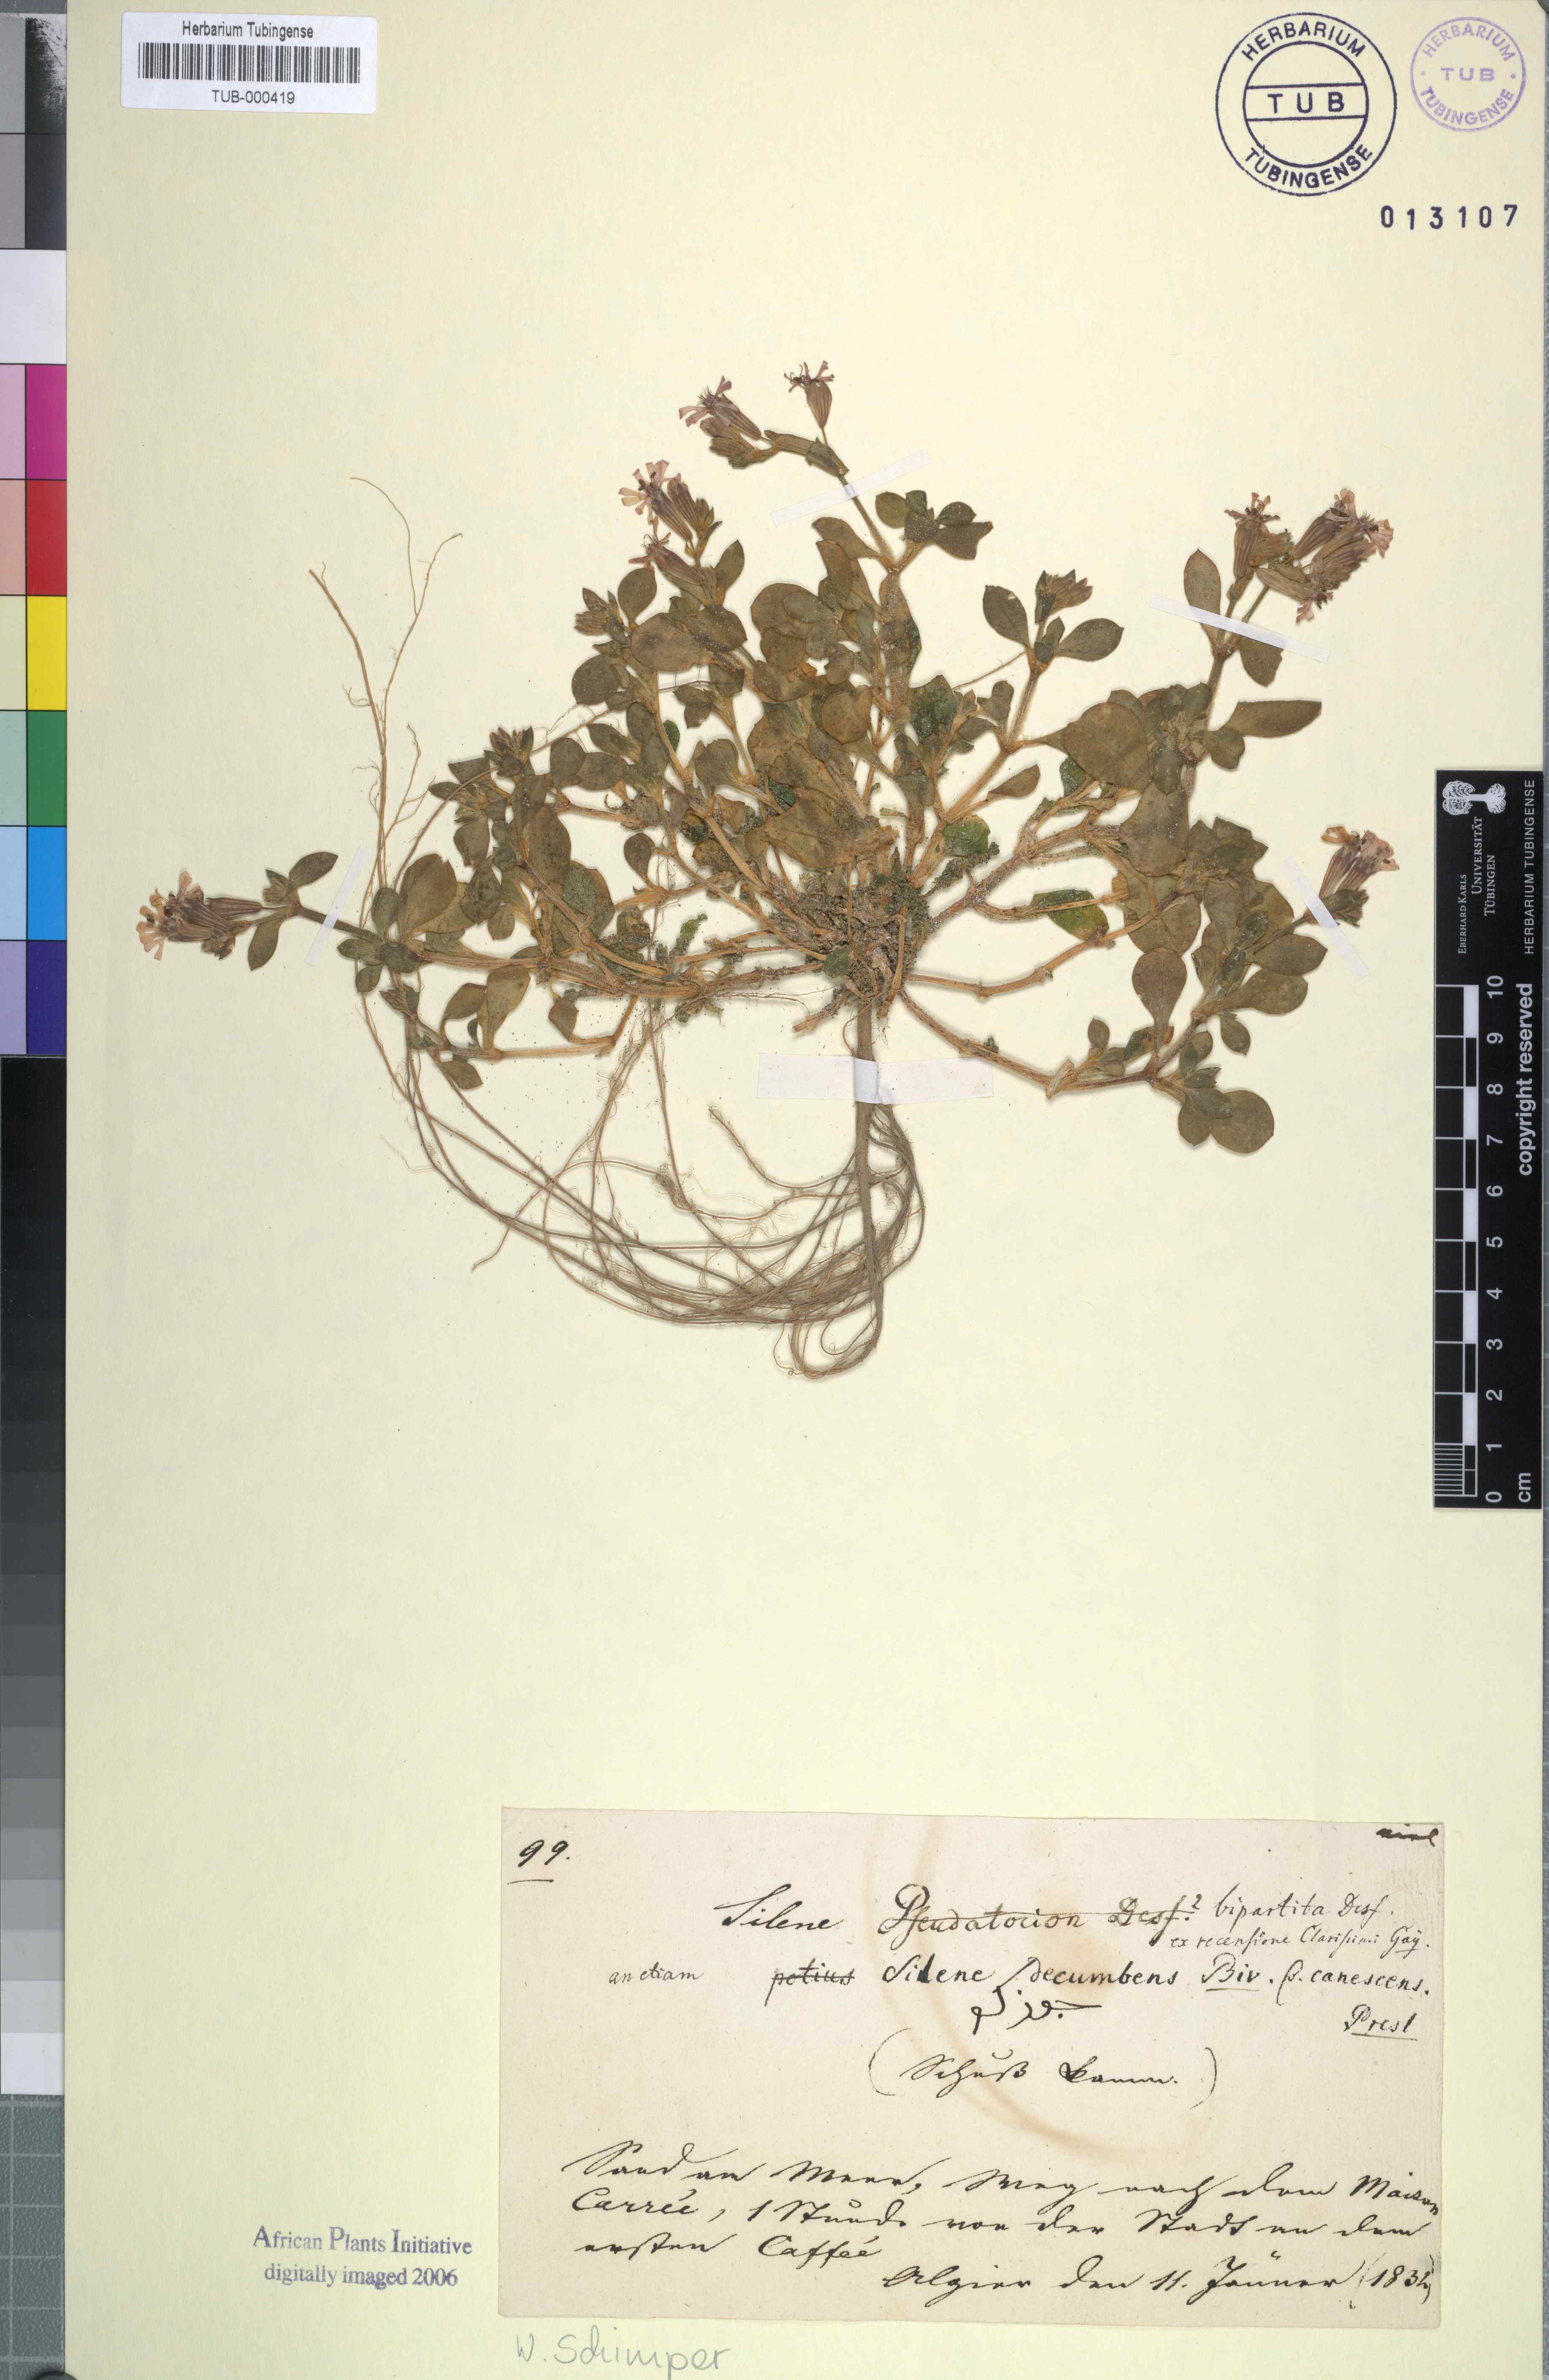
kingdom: Plantae
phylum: Tracheophyta
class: Magnoliopsida
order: Caryophyllales
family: Caryophyllaceae
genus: Silene
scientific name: Silene colorata
